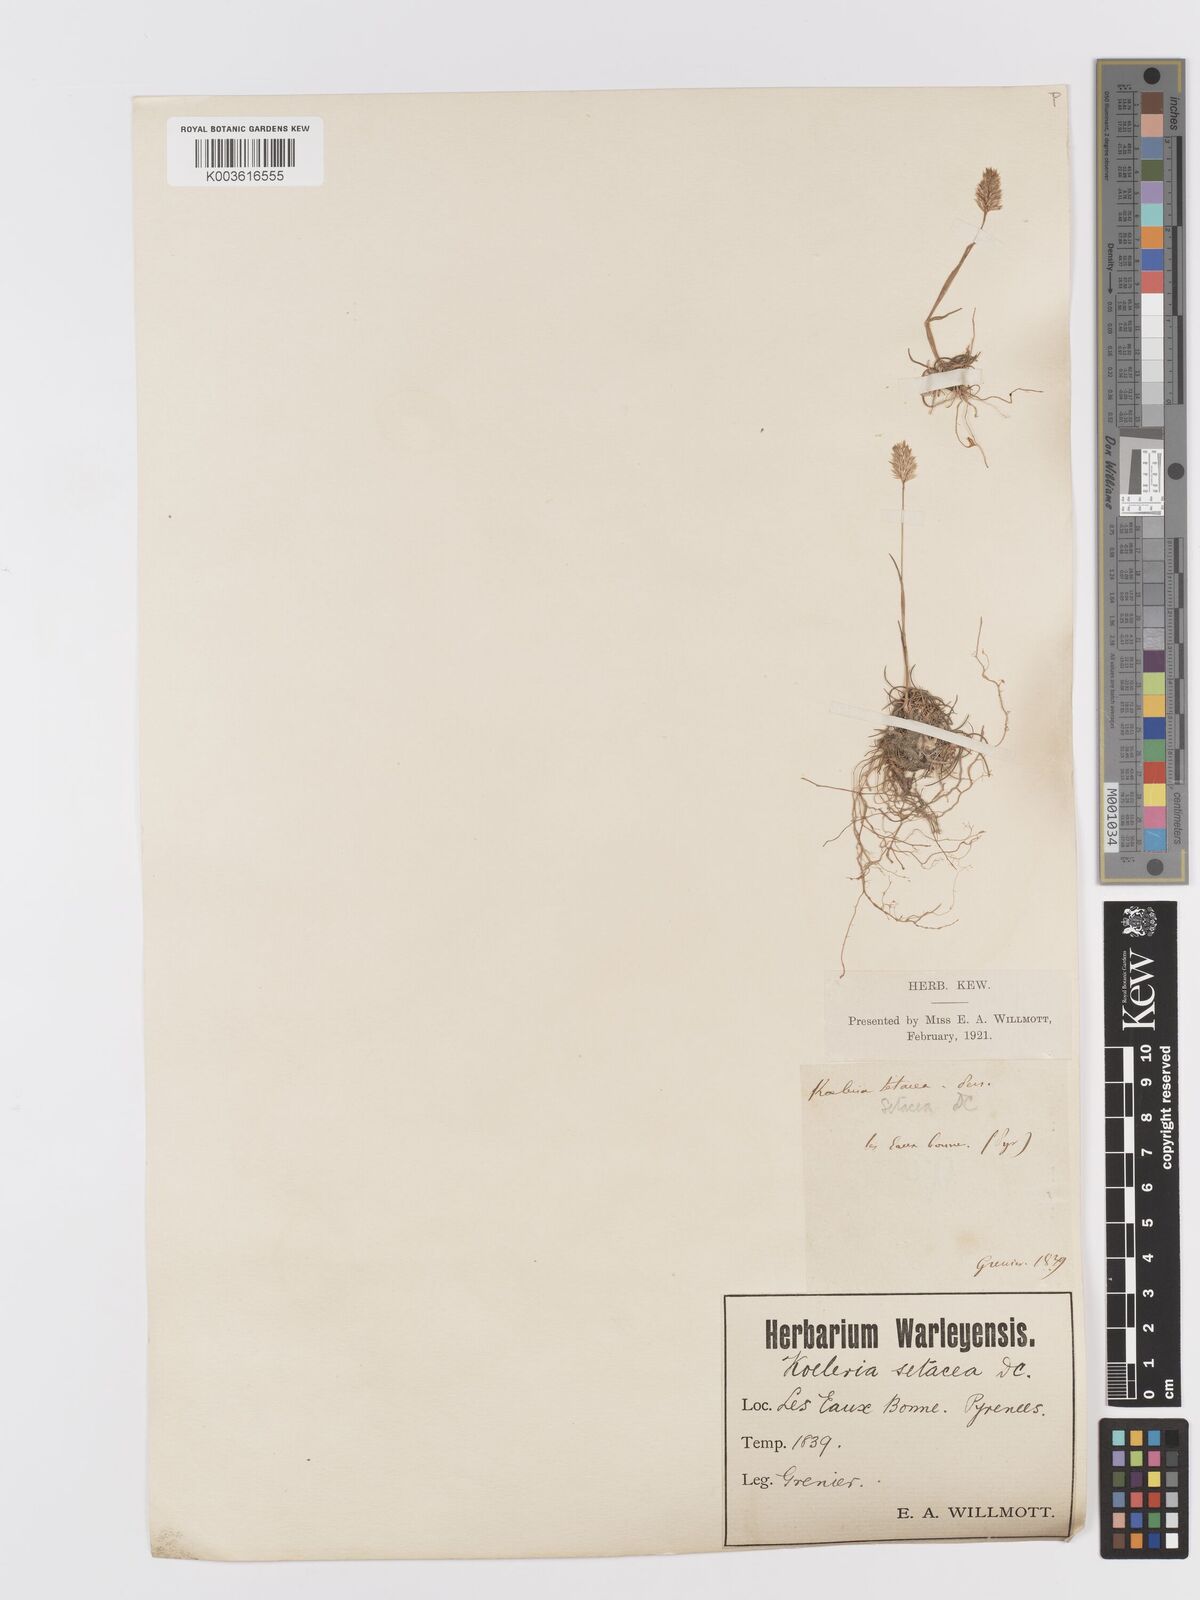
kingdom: Plantae
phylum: Tracheophyta
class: Liliopsida
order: Poales
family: Poaceae
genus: Koeleria
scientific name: Koeleria vallesiana
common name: Somerset hair-grass
